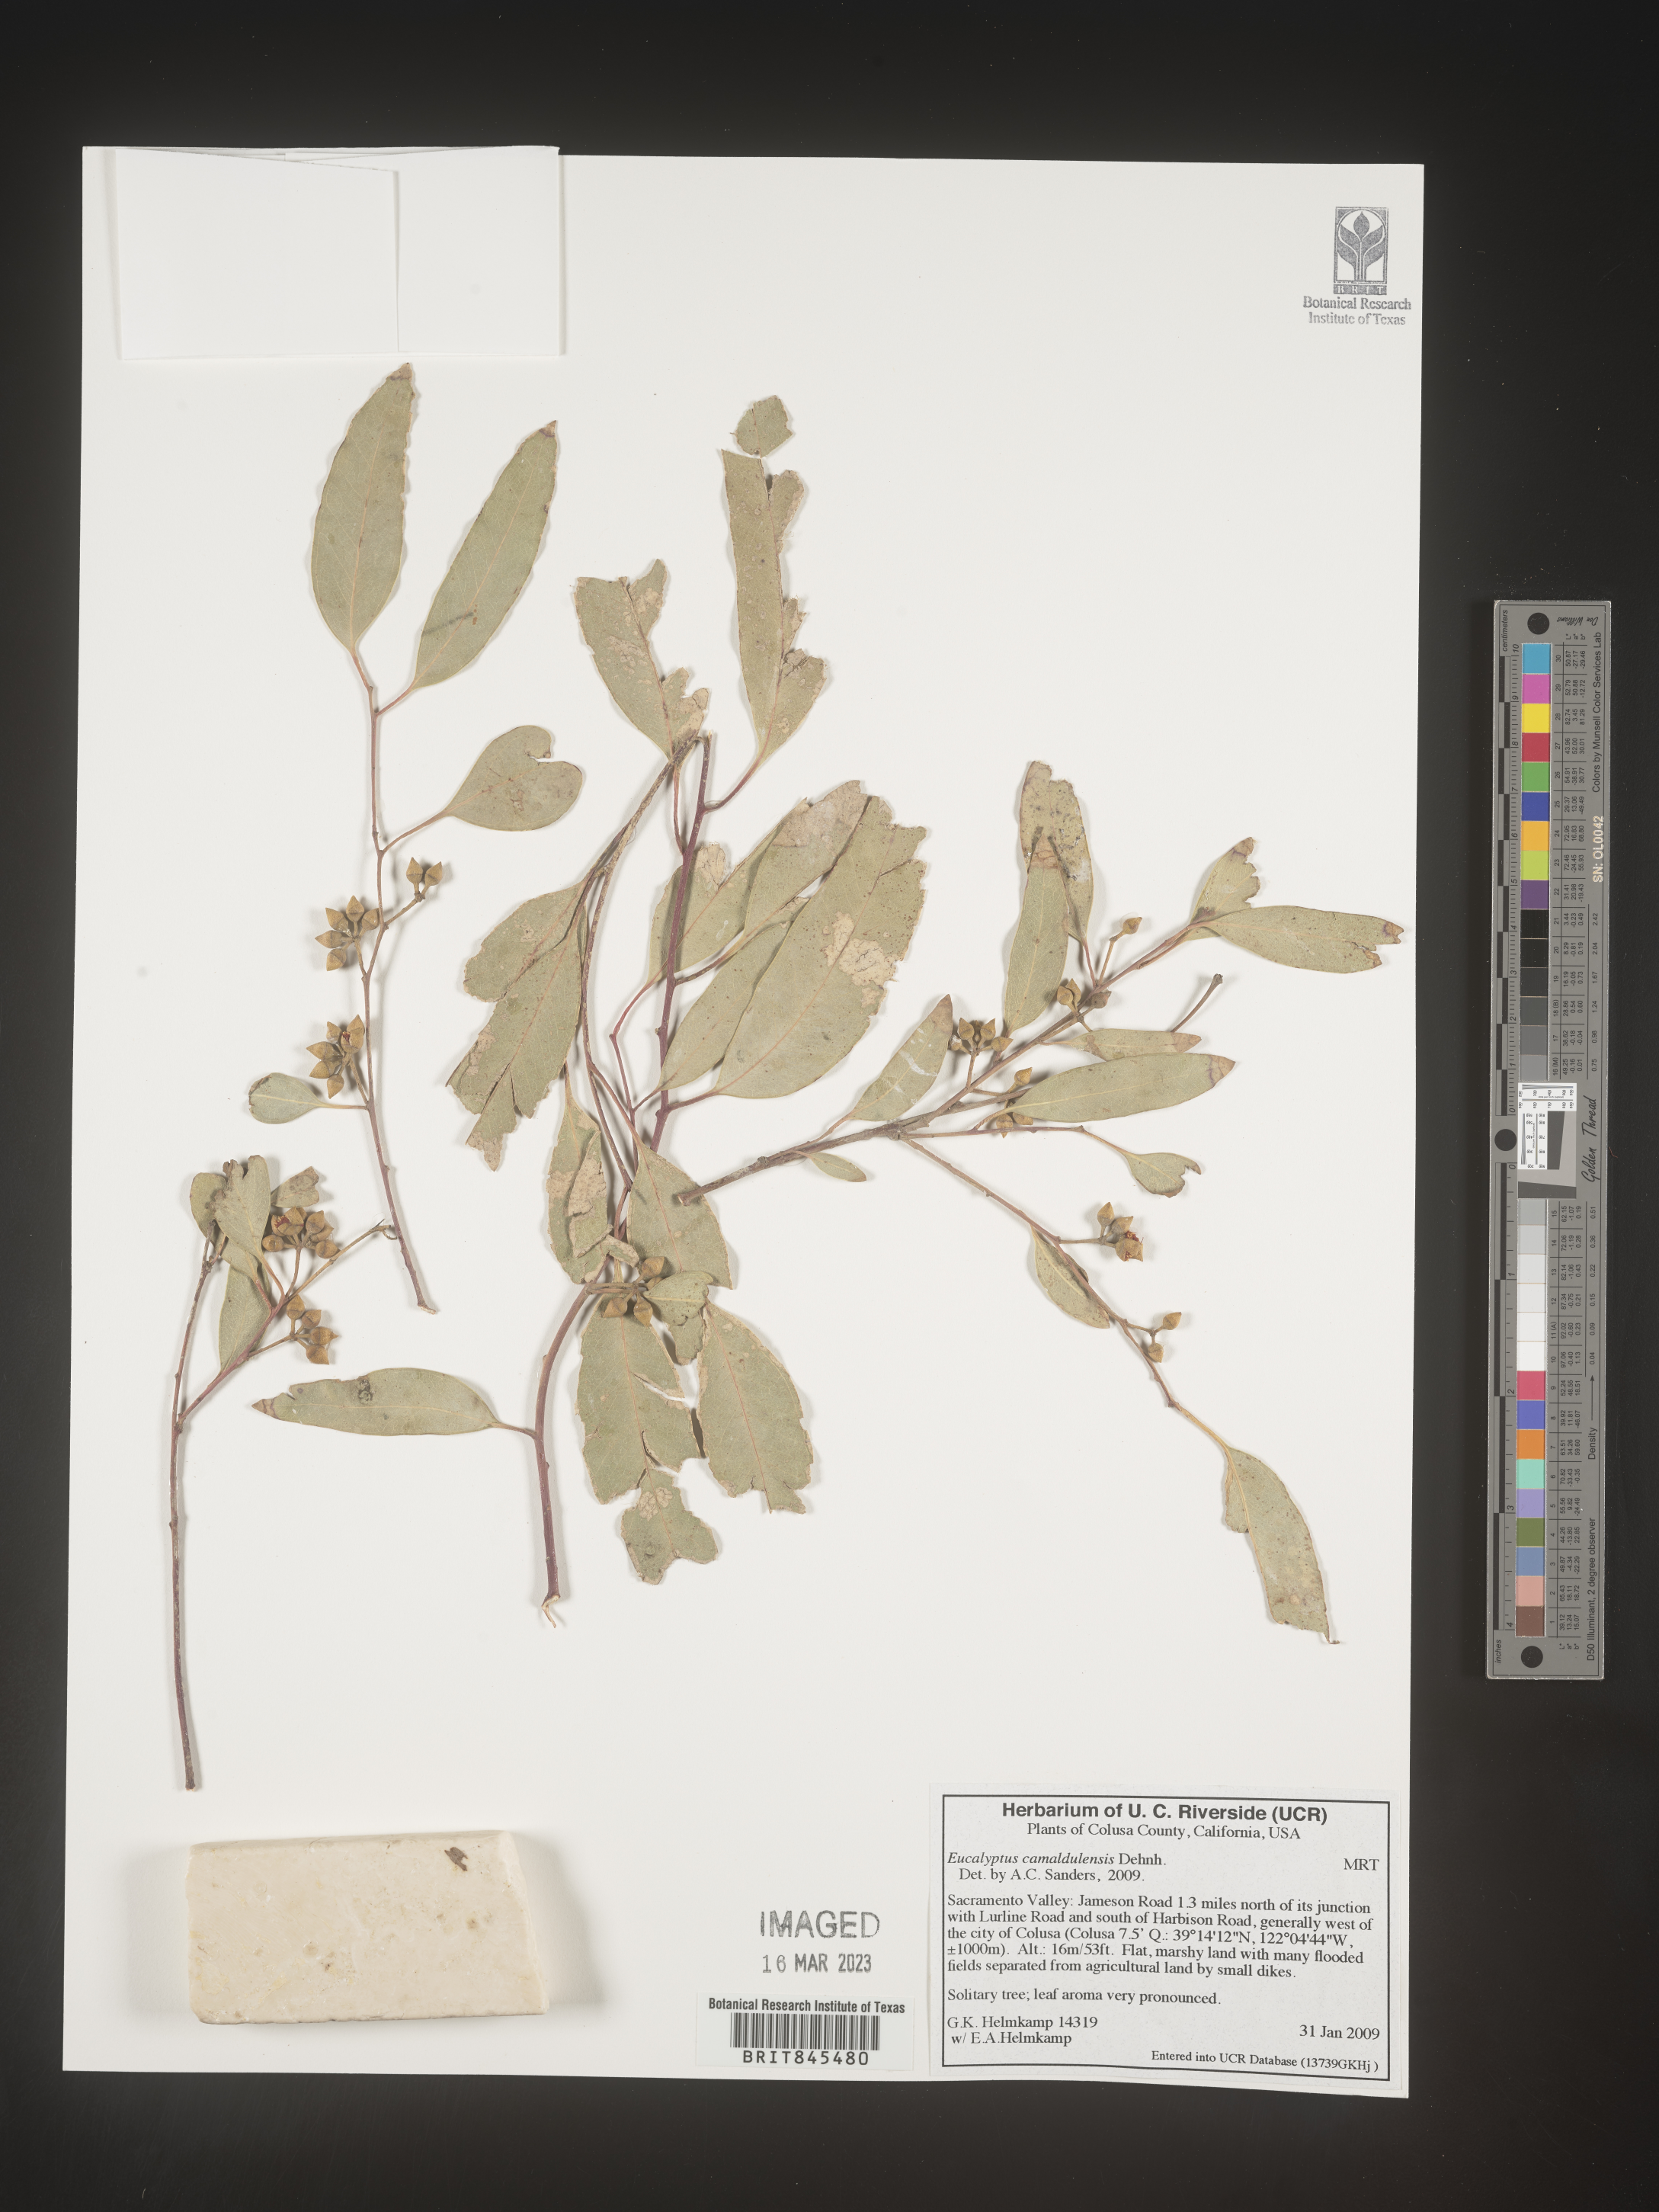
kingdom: Plantae
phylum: Tracheophyta
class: Magnoliopsida
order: Myrtales
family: Myrtaceae
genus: Eucalyptus
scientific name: Eucalyptus
